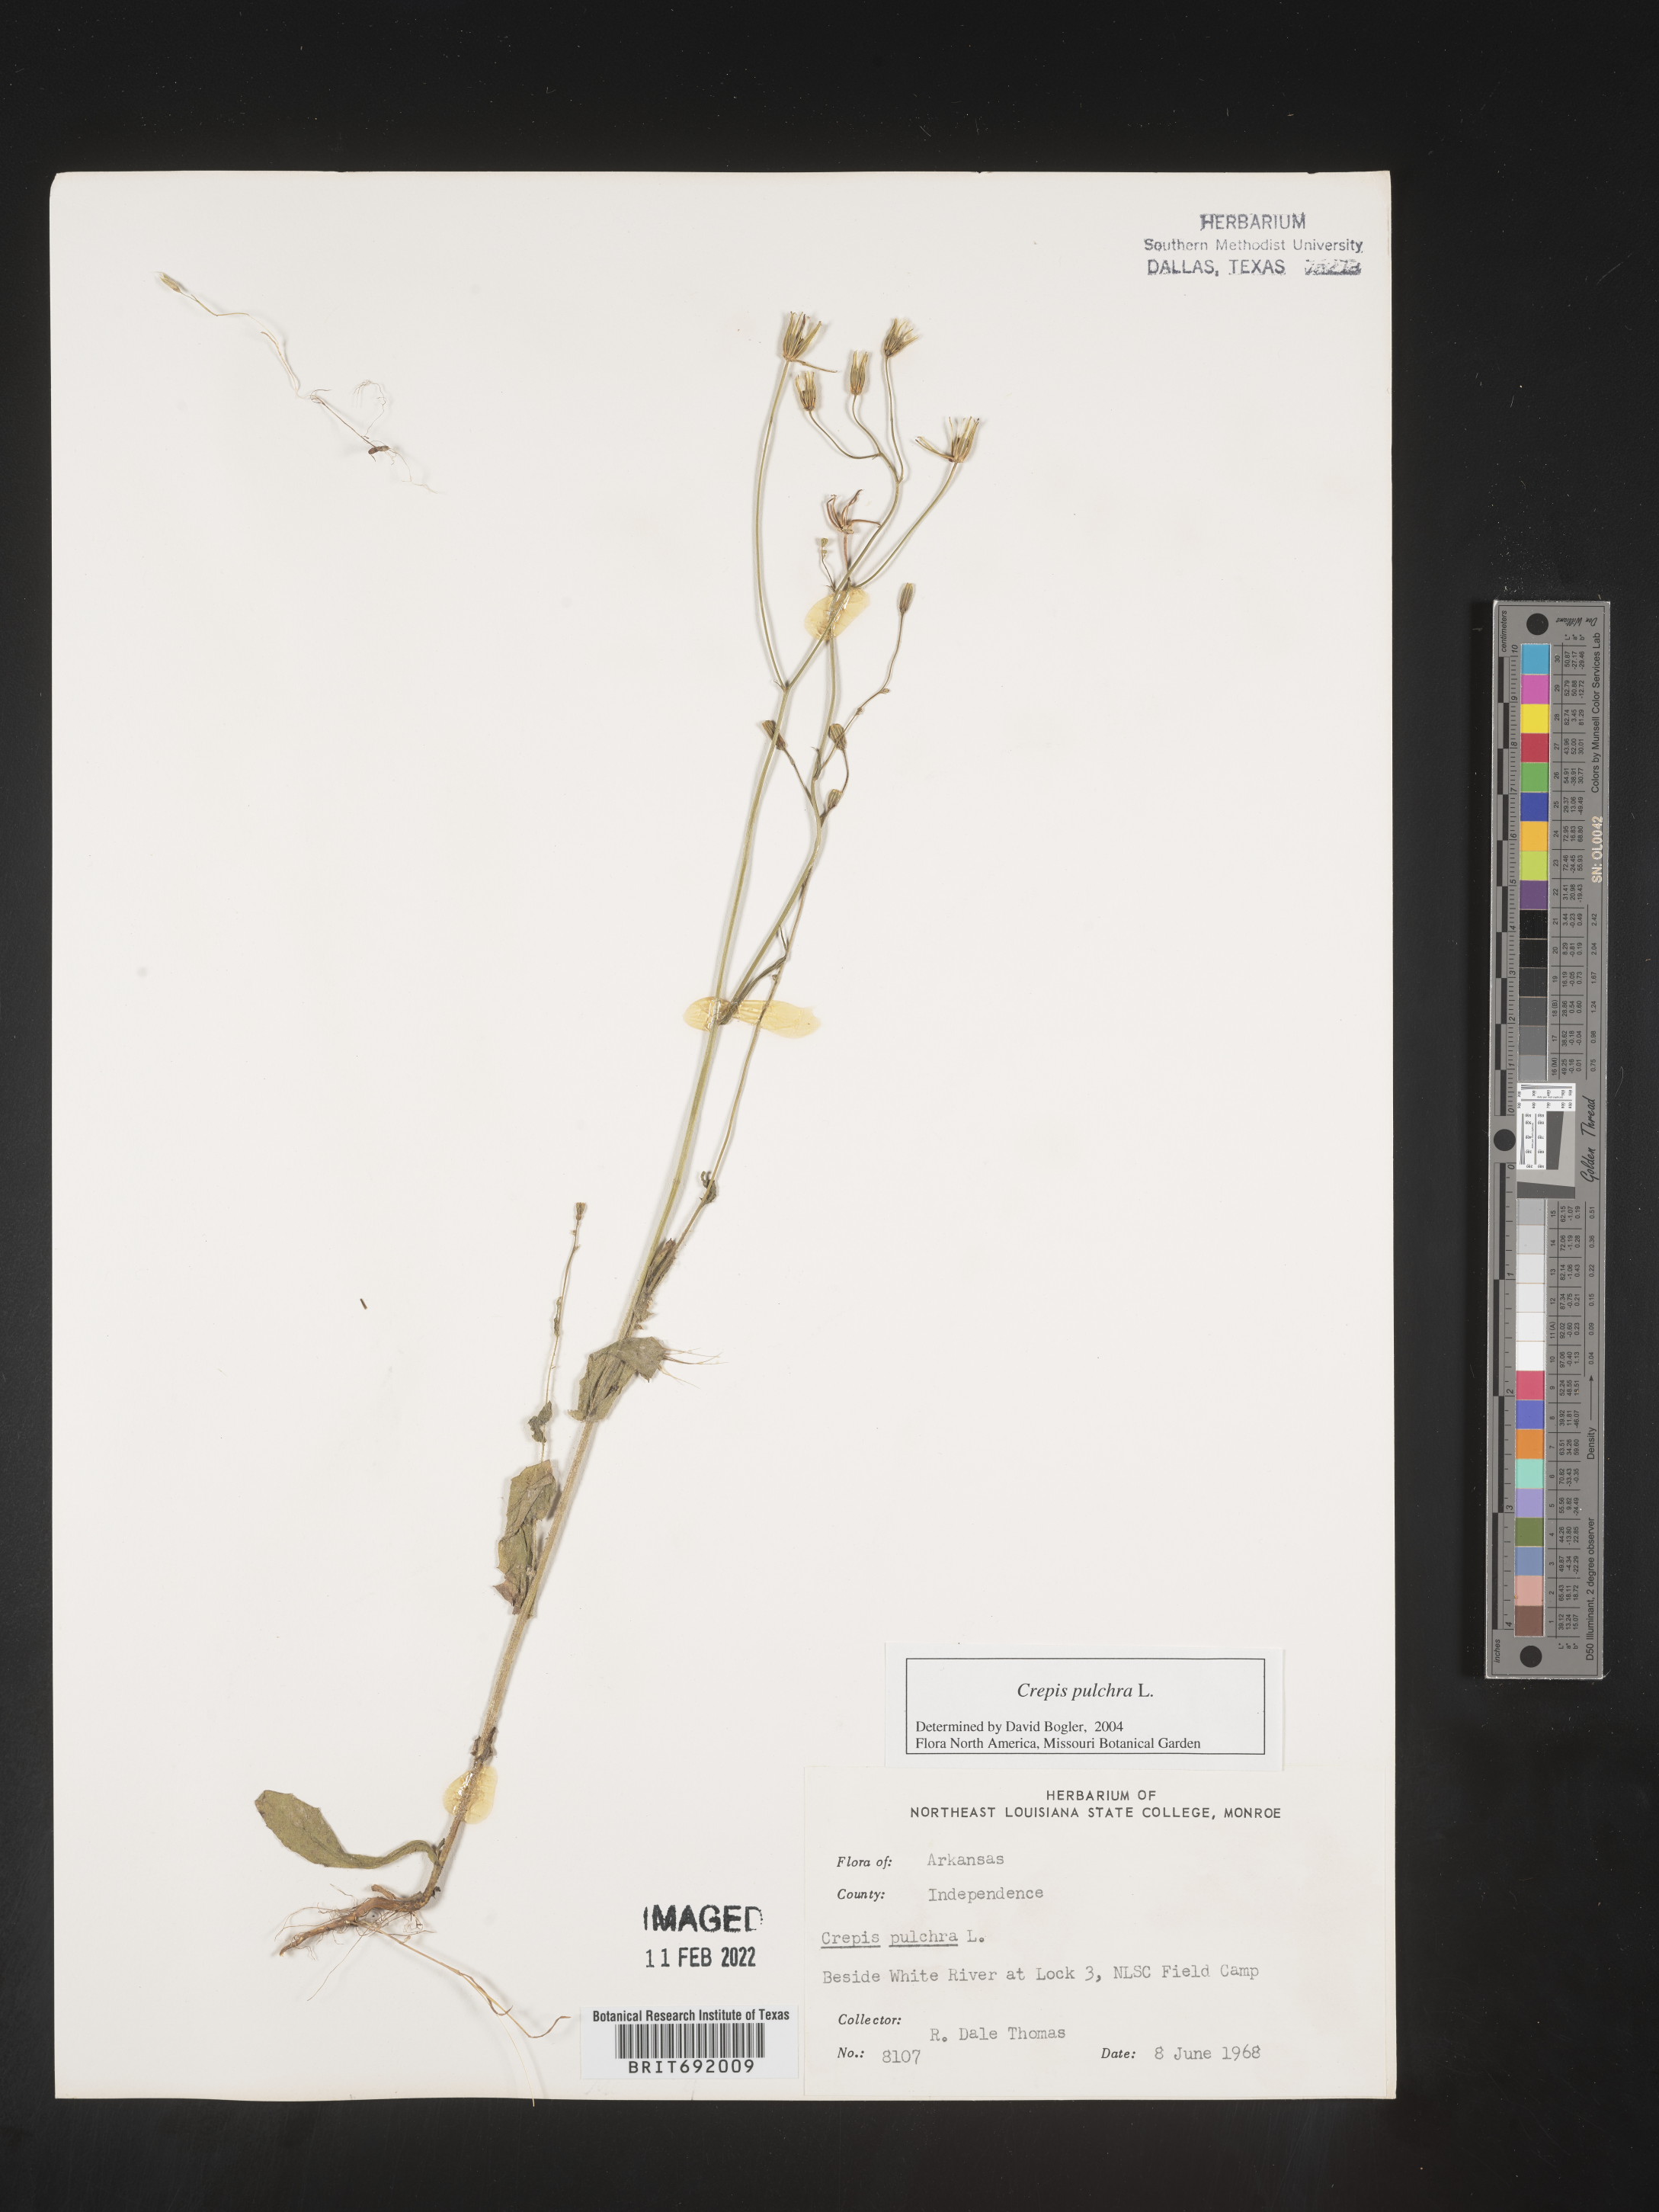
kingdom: Plantae
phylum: Tracheophyta
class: Magnoliopsida
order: Asterales
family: Asteraceae
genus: Crepis
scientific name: Crepis pulchra
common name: Hawk's-beard
